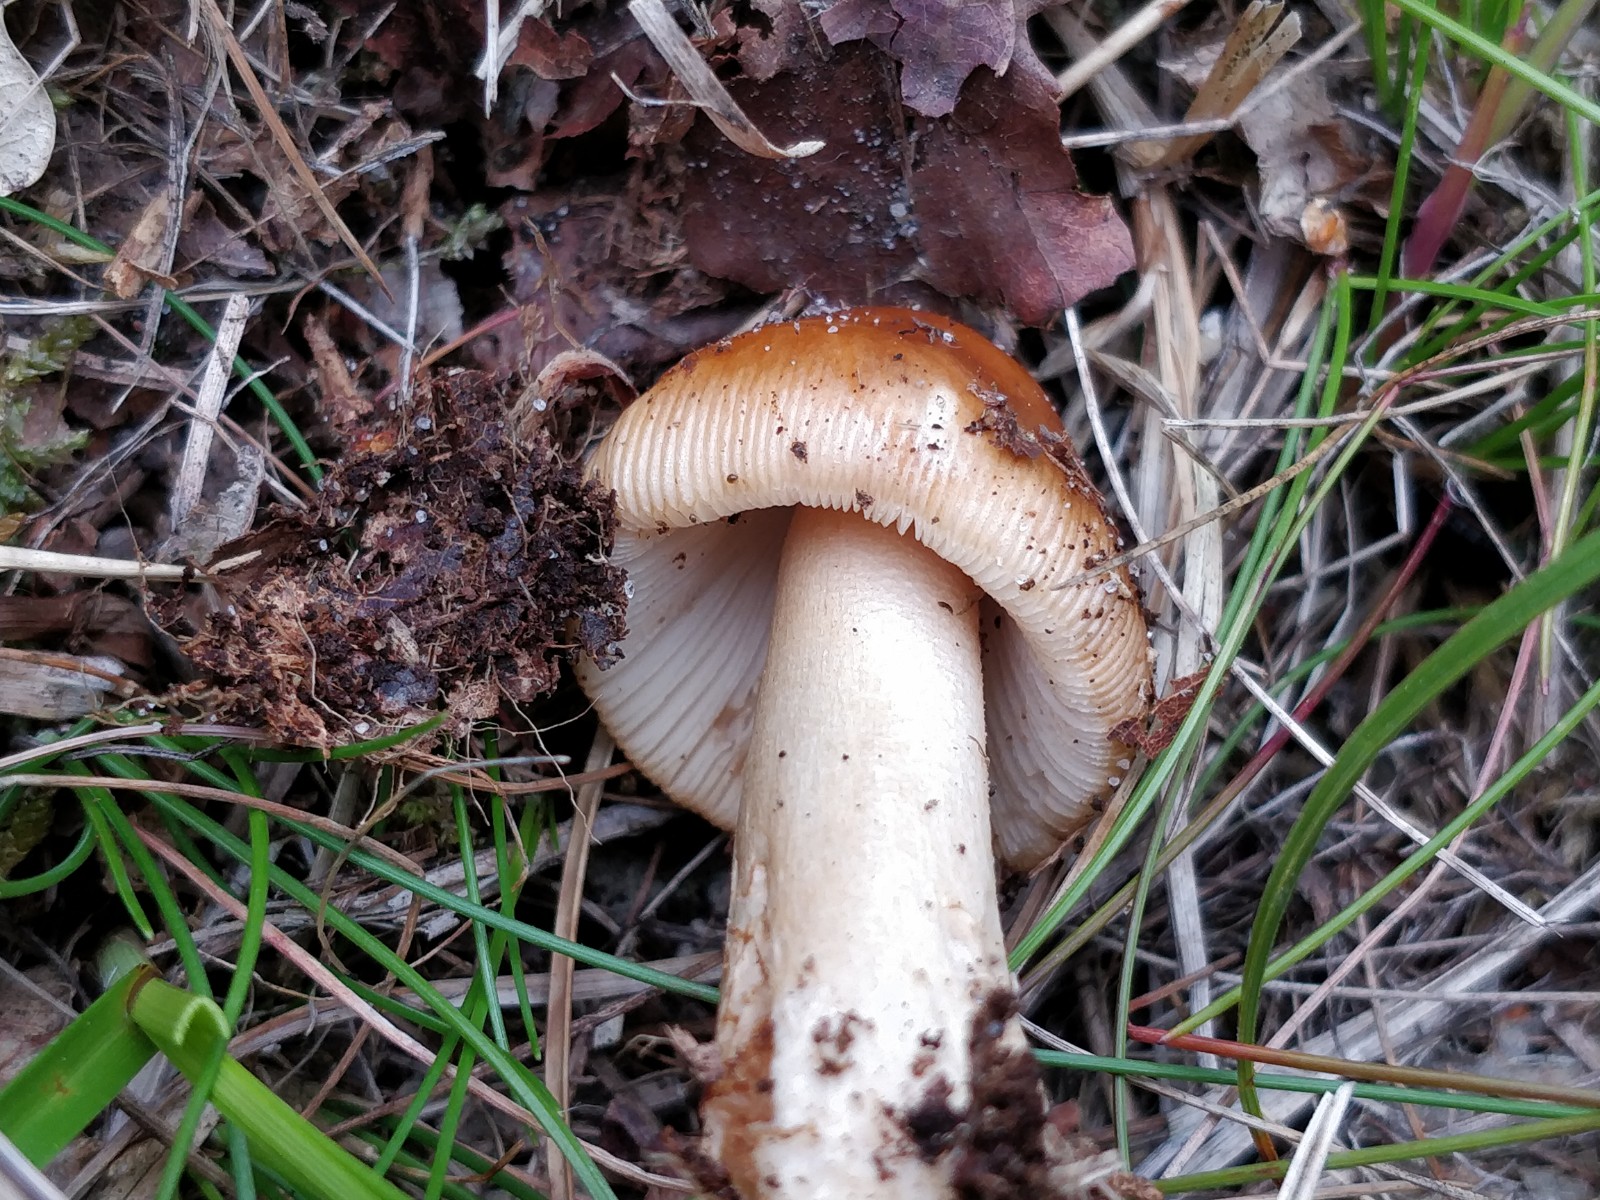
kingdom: Fungi
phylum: Basidiomycota
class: Agaricomycetes
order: Agaricales
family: Amanitaceae
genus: Amanita
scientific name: Amanita fulva
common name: brun kam-fluesvamp
